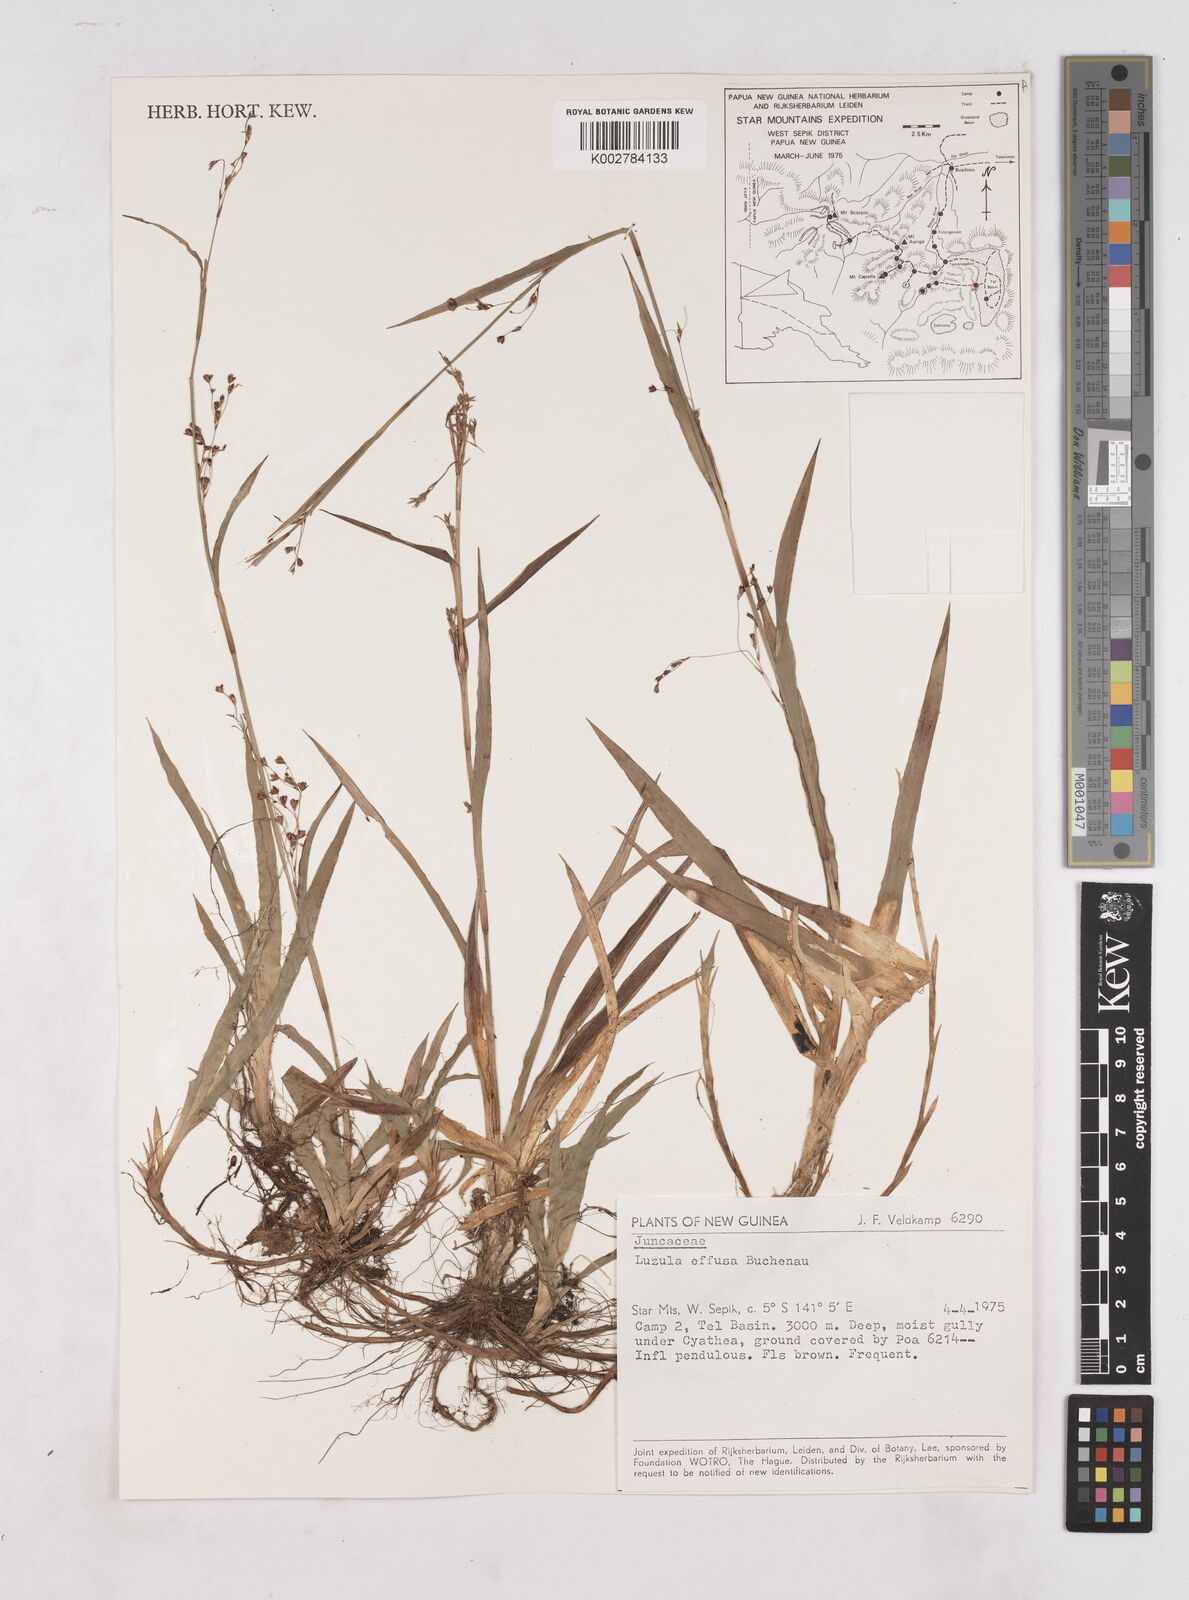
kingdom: Plantae
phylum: Tracheophyta
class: Liliopsida
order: Poales
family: Juncaceae
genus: Luzula
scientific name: Luzula effusa
